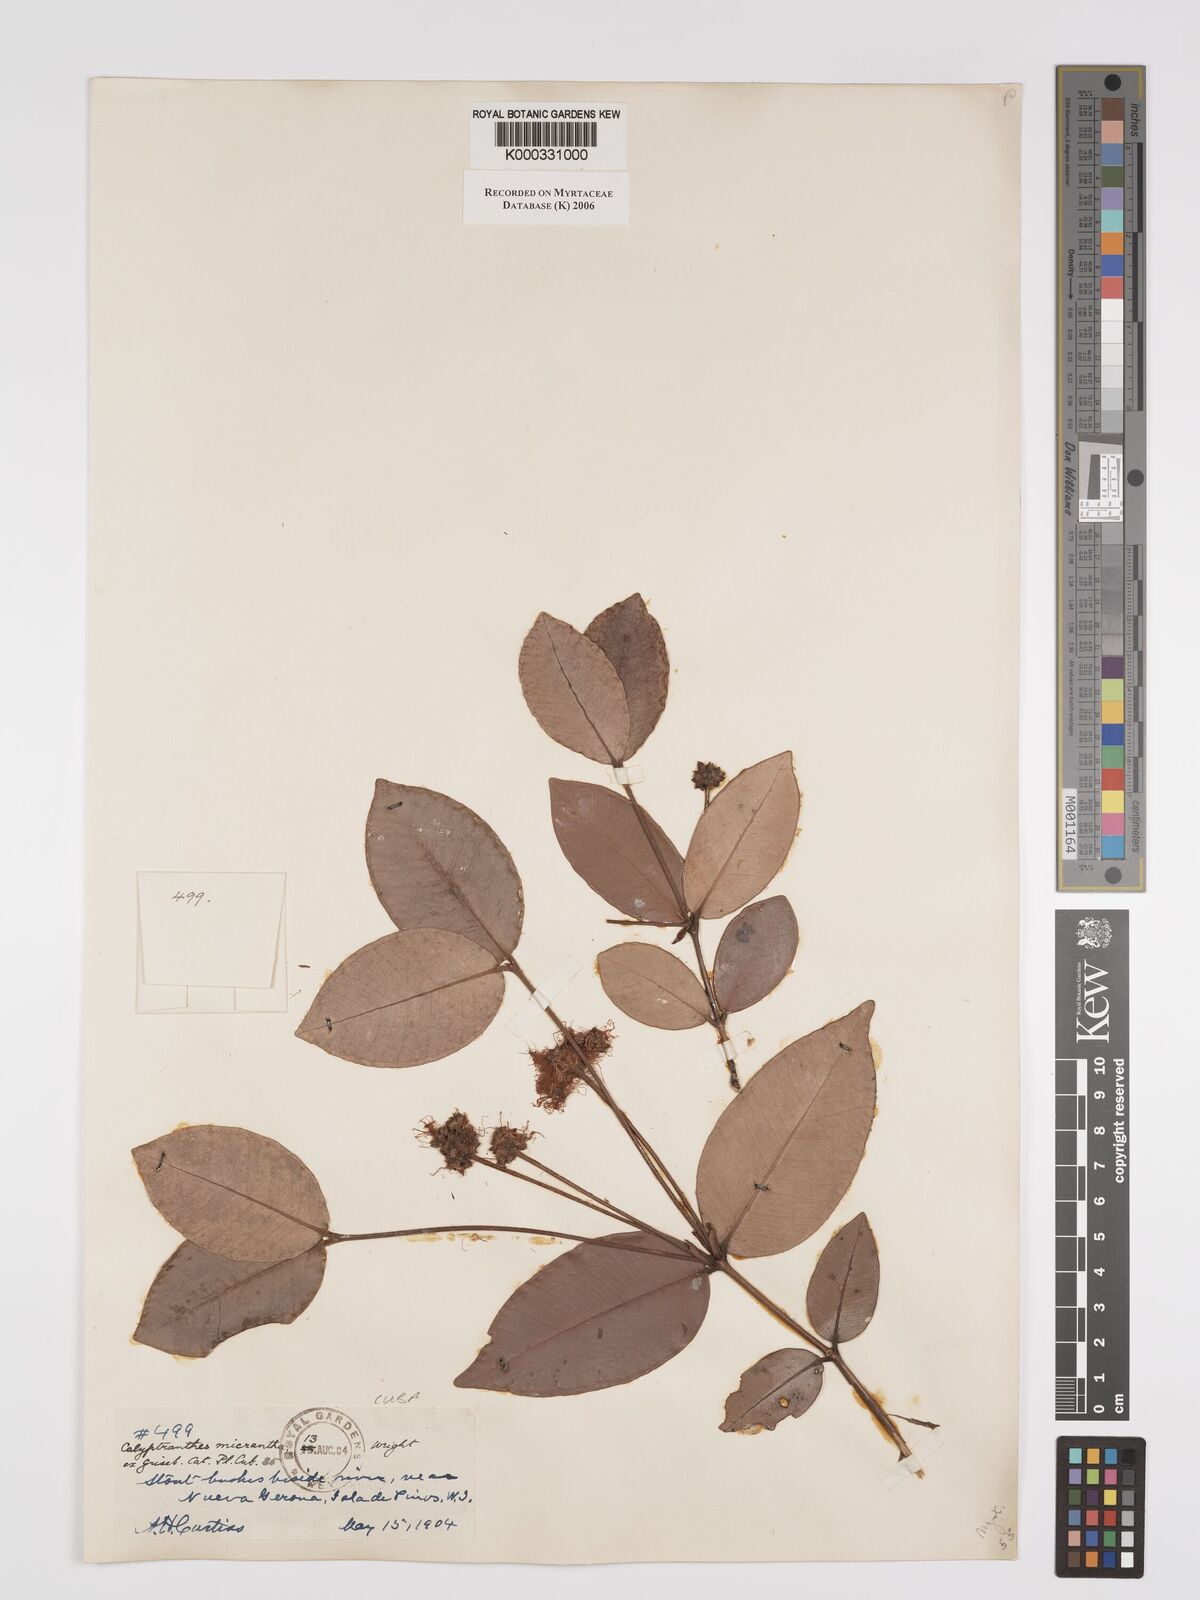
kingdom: Plantae
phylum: Tracheophyta
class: Magnoliopsida
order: Myrtales
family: Myrtaceae
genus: Myrcia
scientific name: Myrcia parviantha
